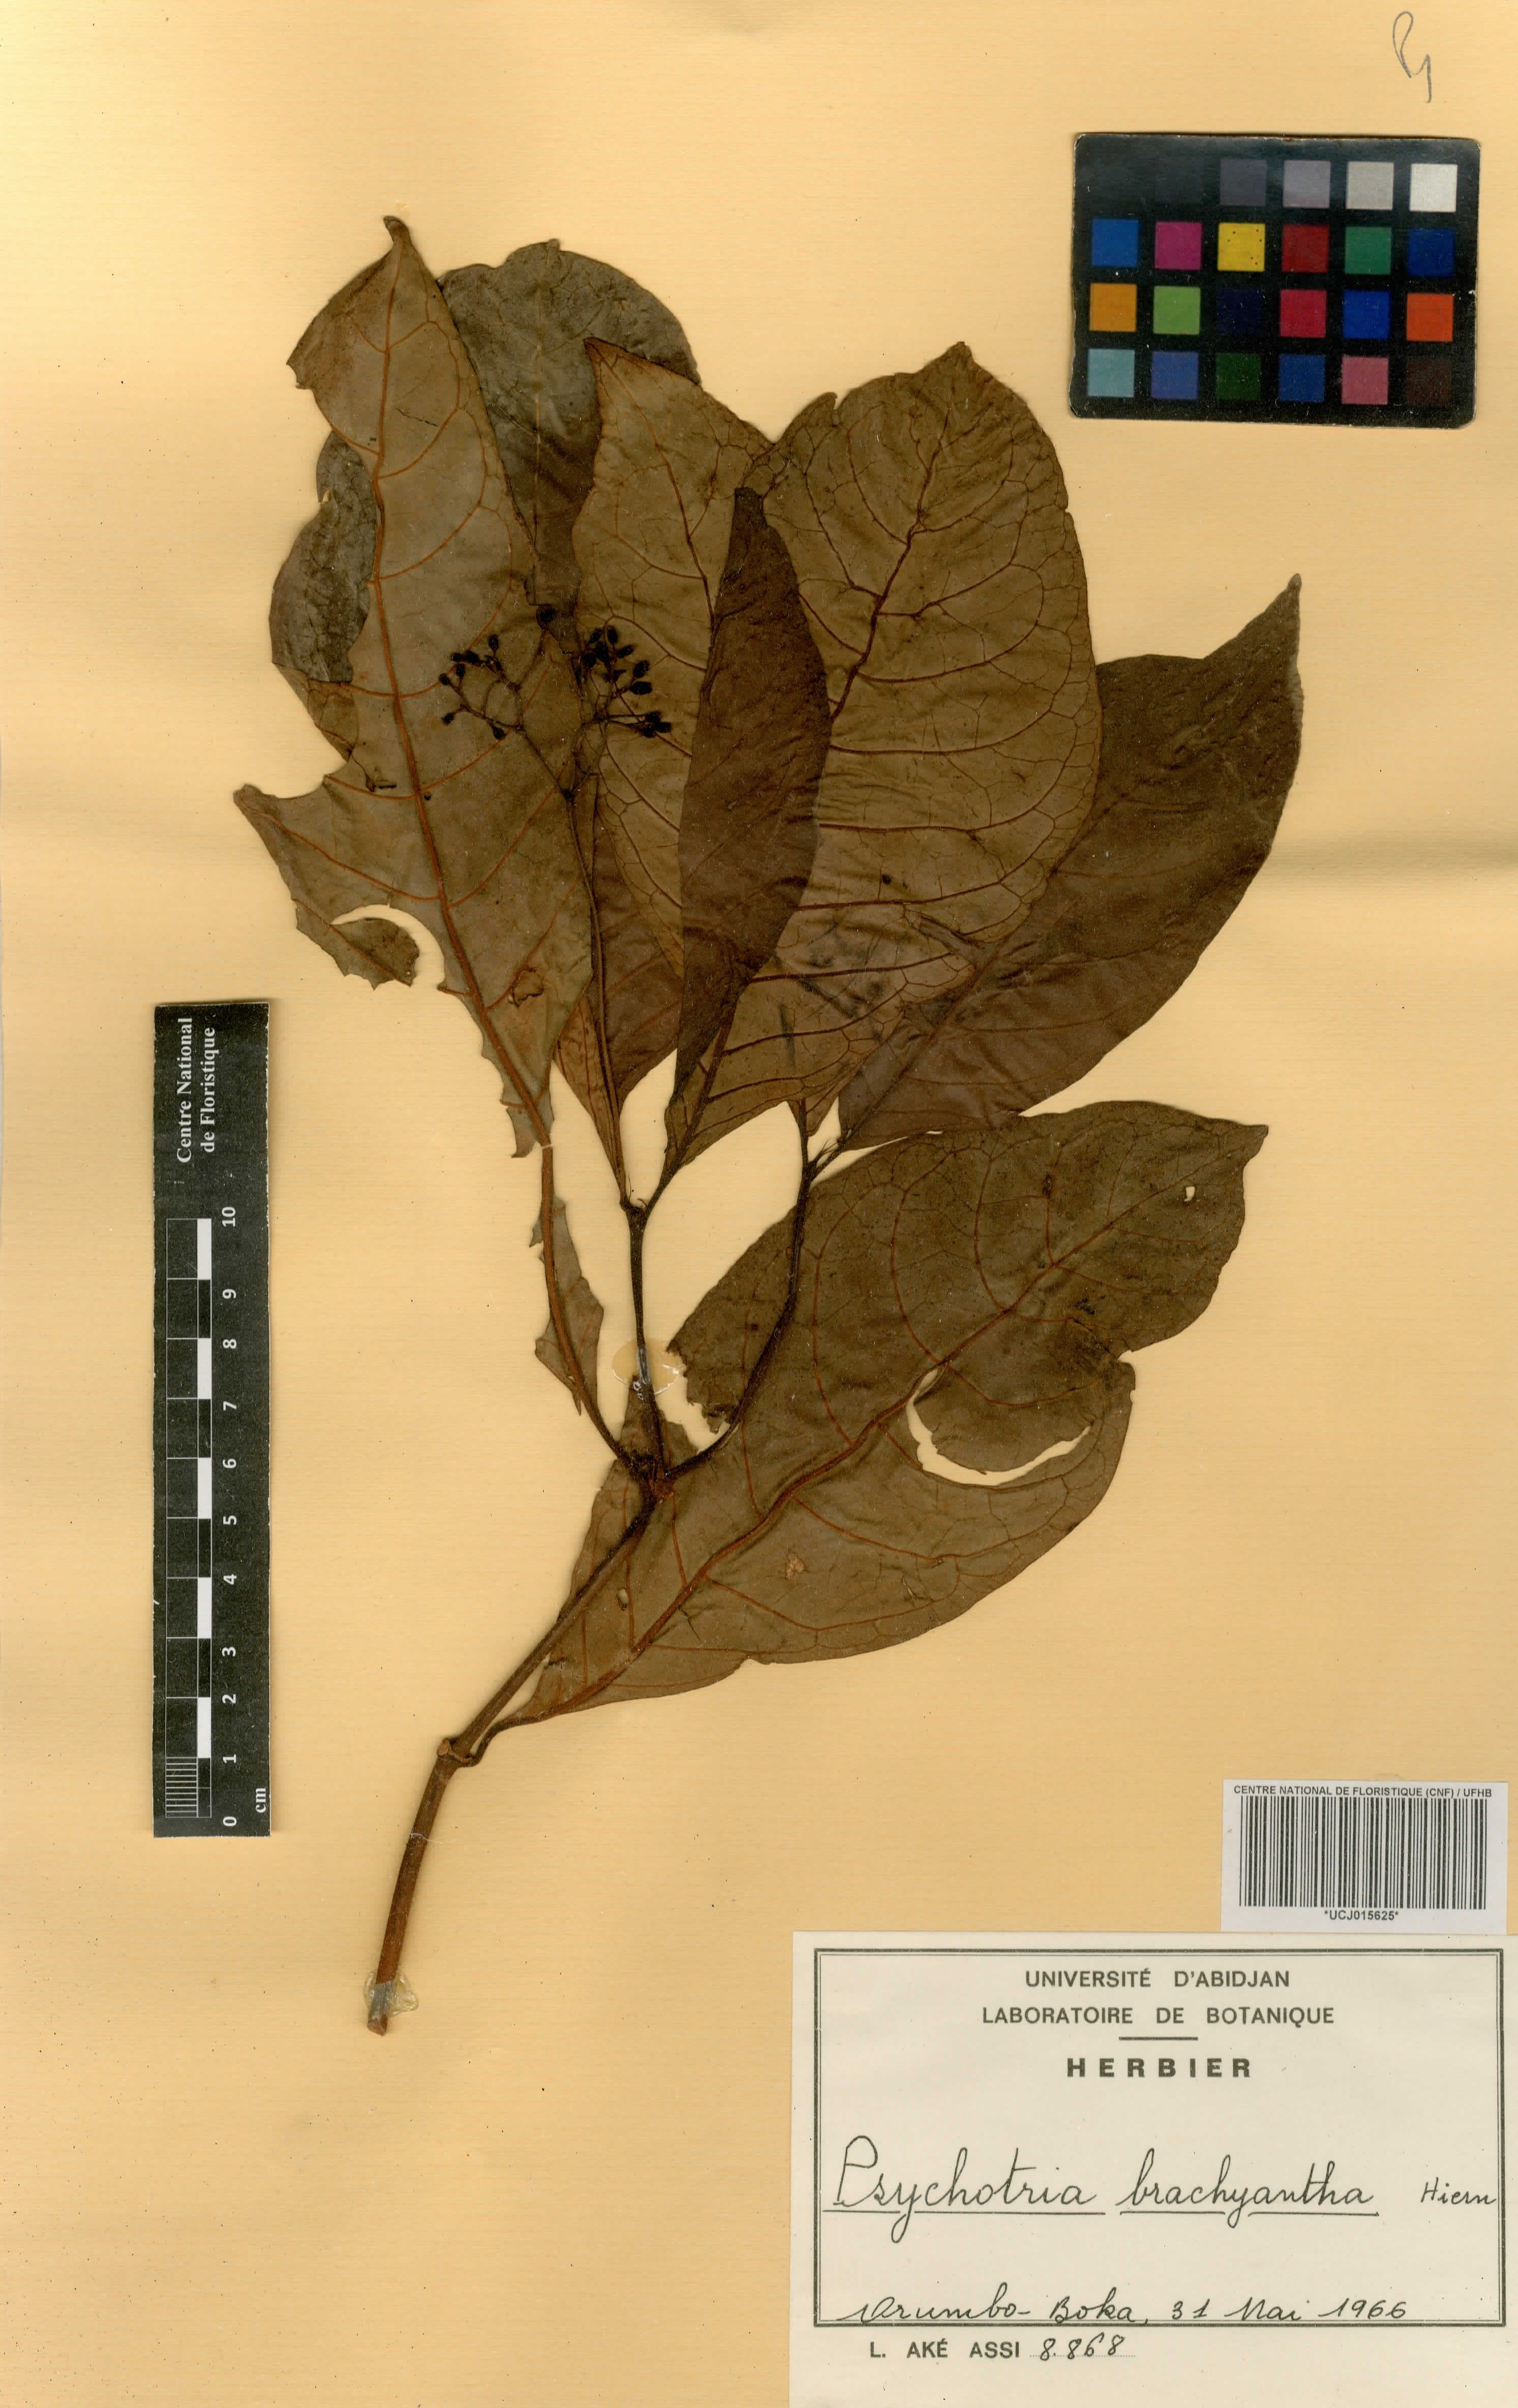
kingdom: Plantae
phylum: Tracheophyta
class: Magnoliopsida
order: Gentianales
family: Rubiaceae
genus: Psychotria
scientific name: Psychotria brachyantha
